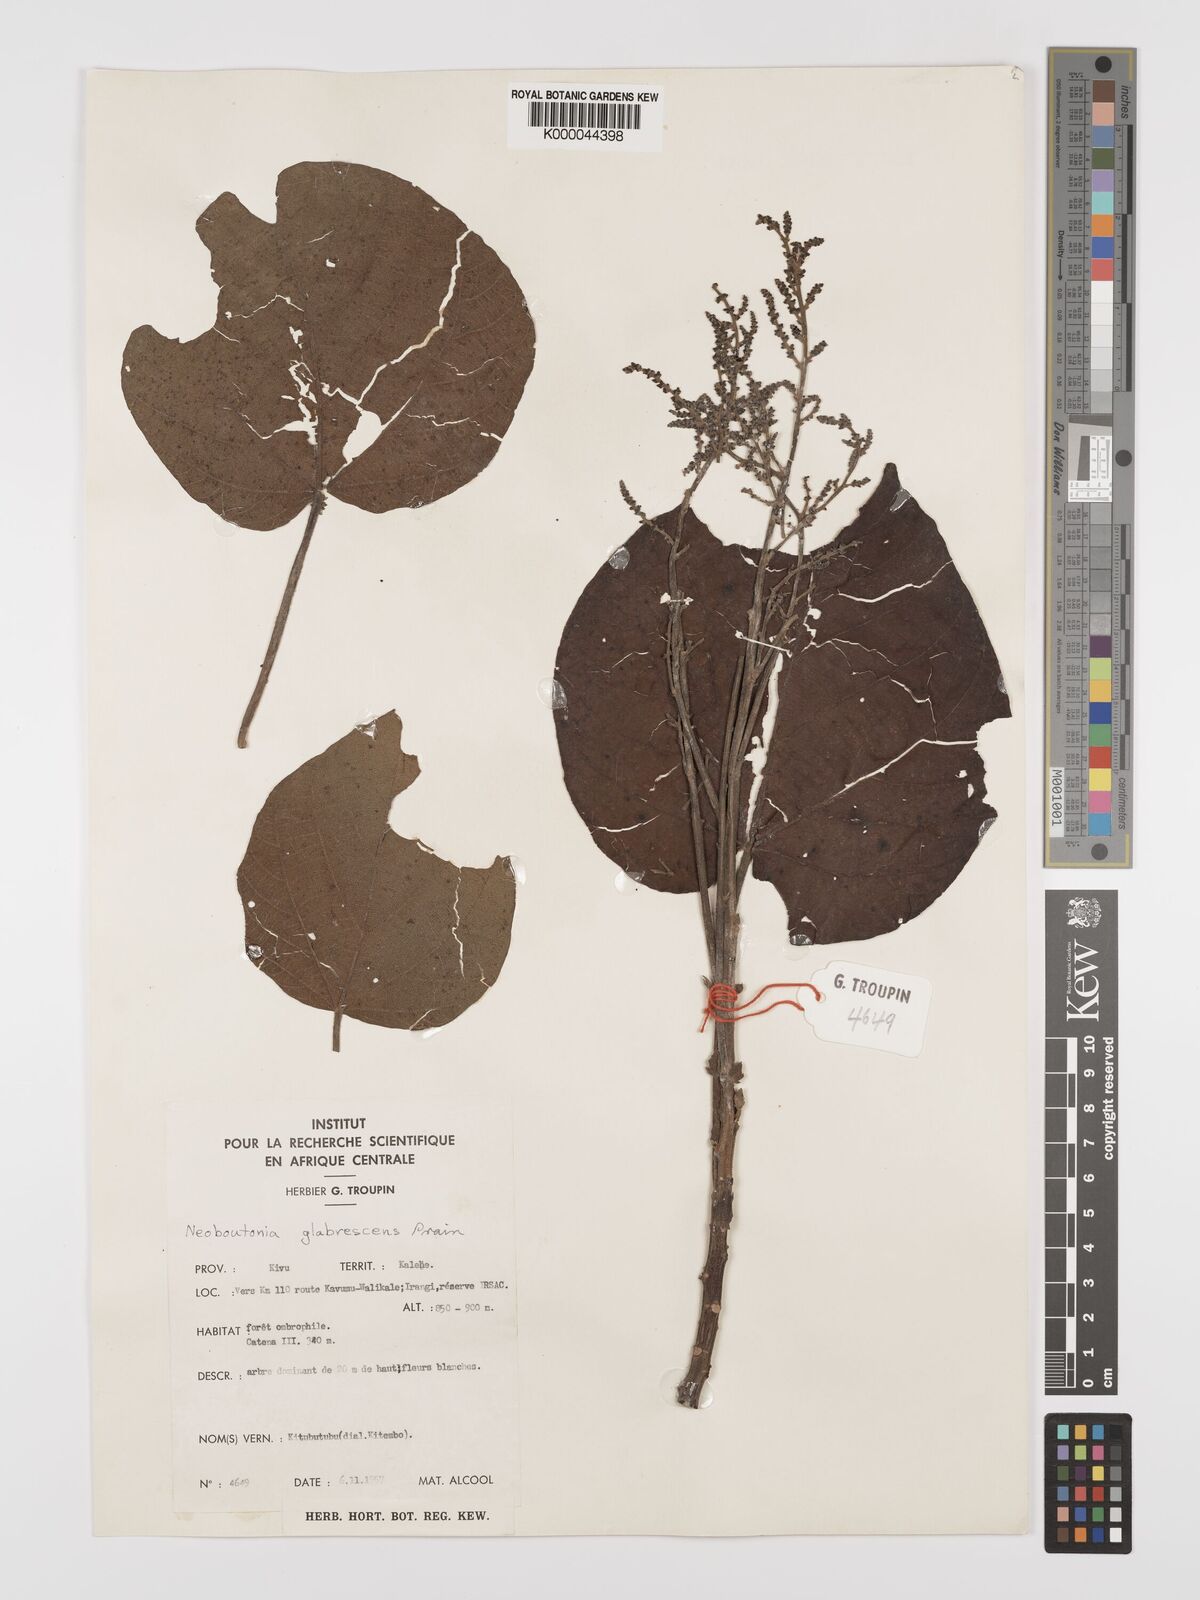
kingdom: Plantae
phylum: Tracheophyta
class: Magnoliopsida
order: Malpighiales
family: Euphorbiaceae
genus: Neoboutonia
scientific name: Neoboutonia mannii
